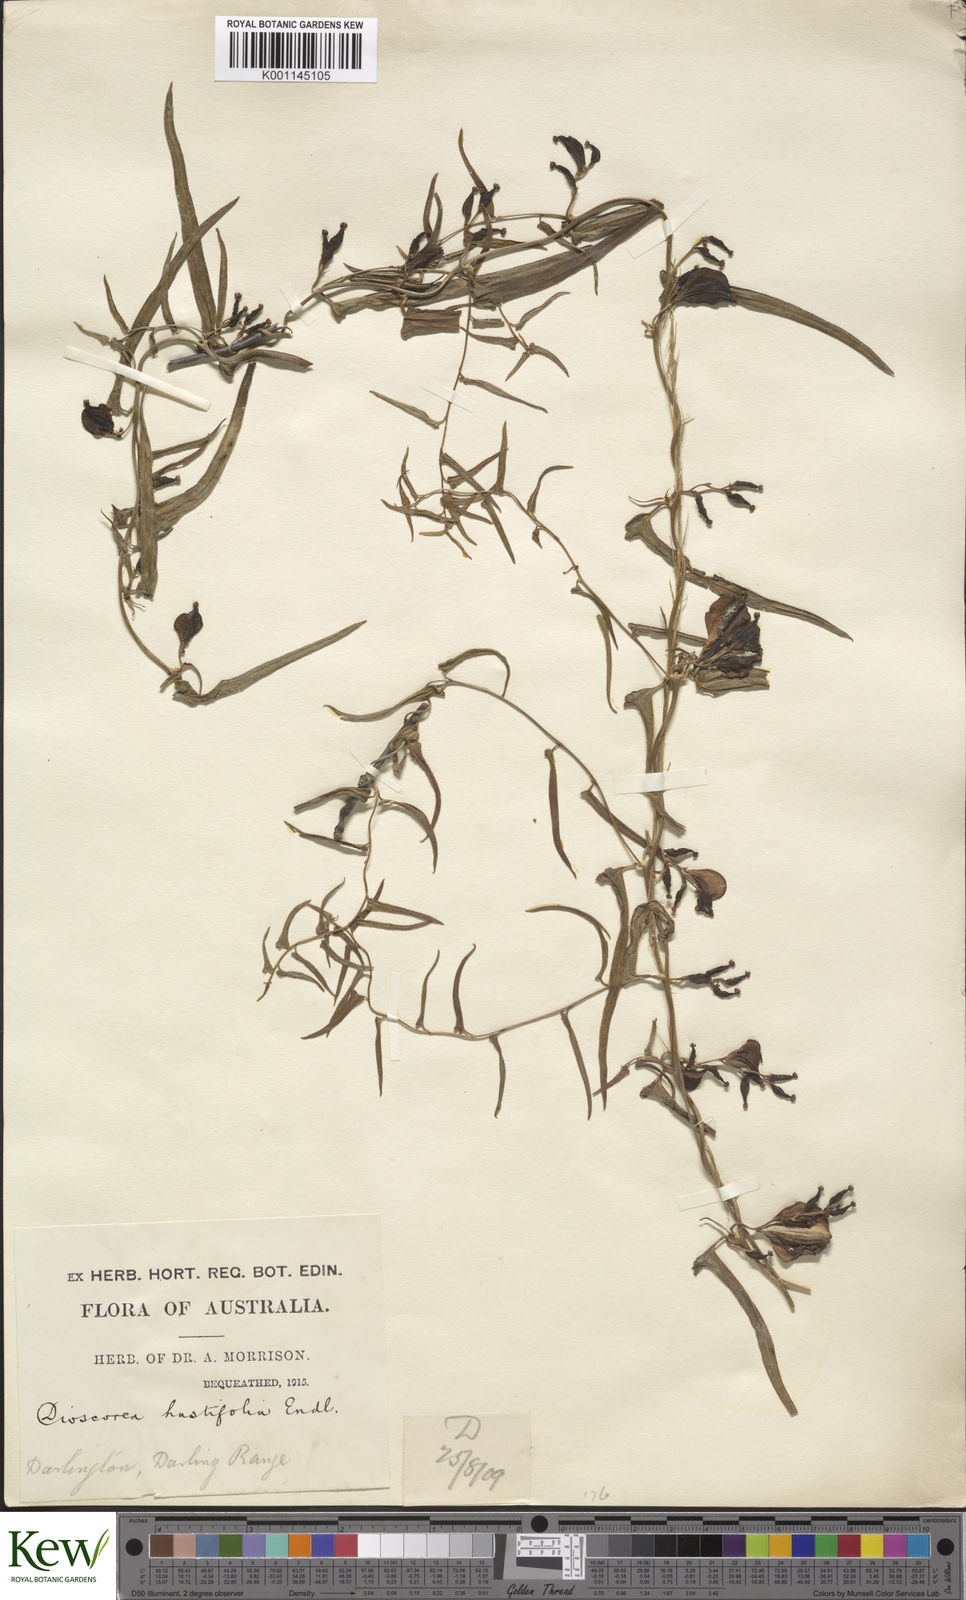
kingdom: Plantae
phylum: Tracheophyta
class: Liliopsida
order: Dioscoreales
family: Dioscoreaceae
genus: Dioscorea
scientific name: Dioscorea hastifolia
